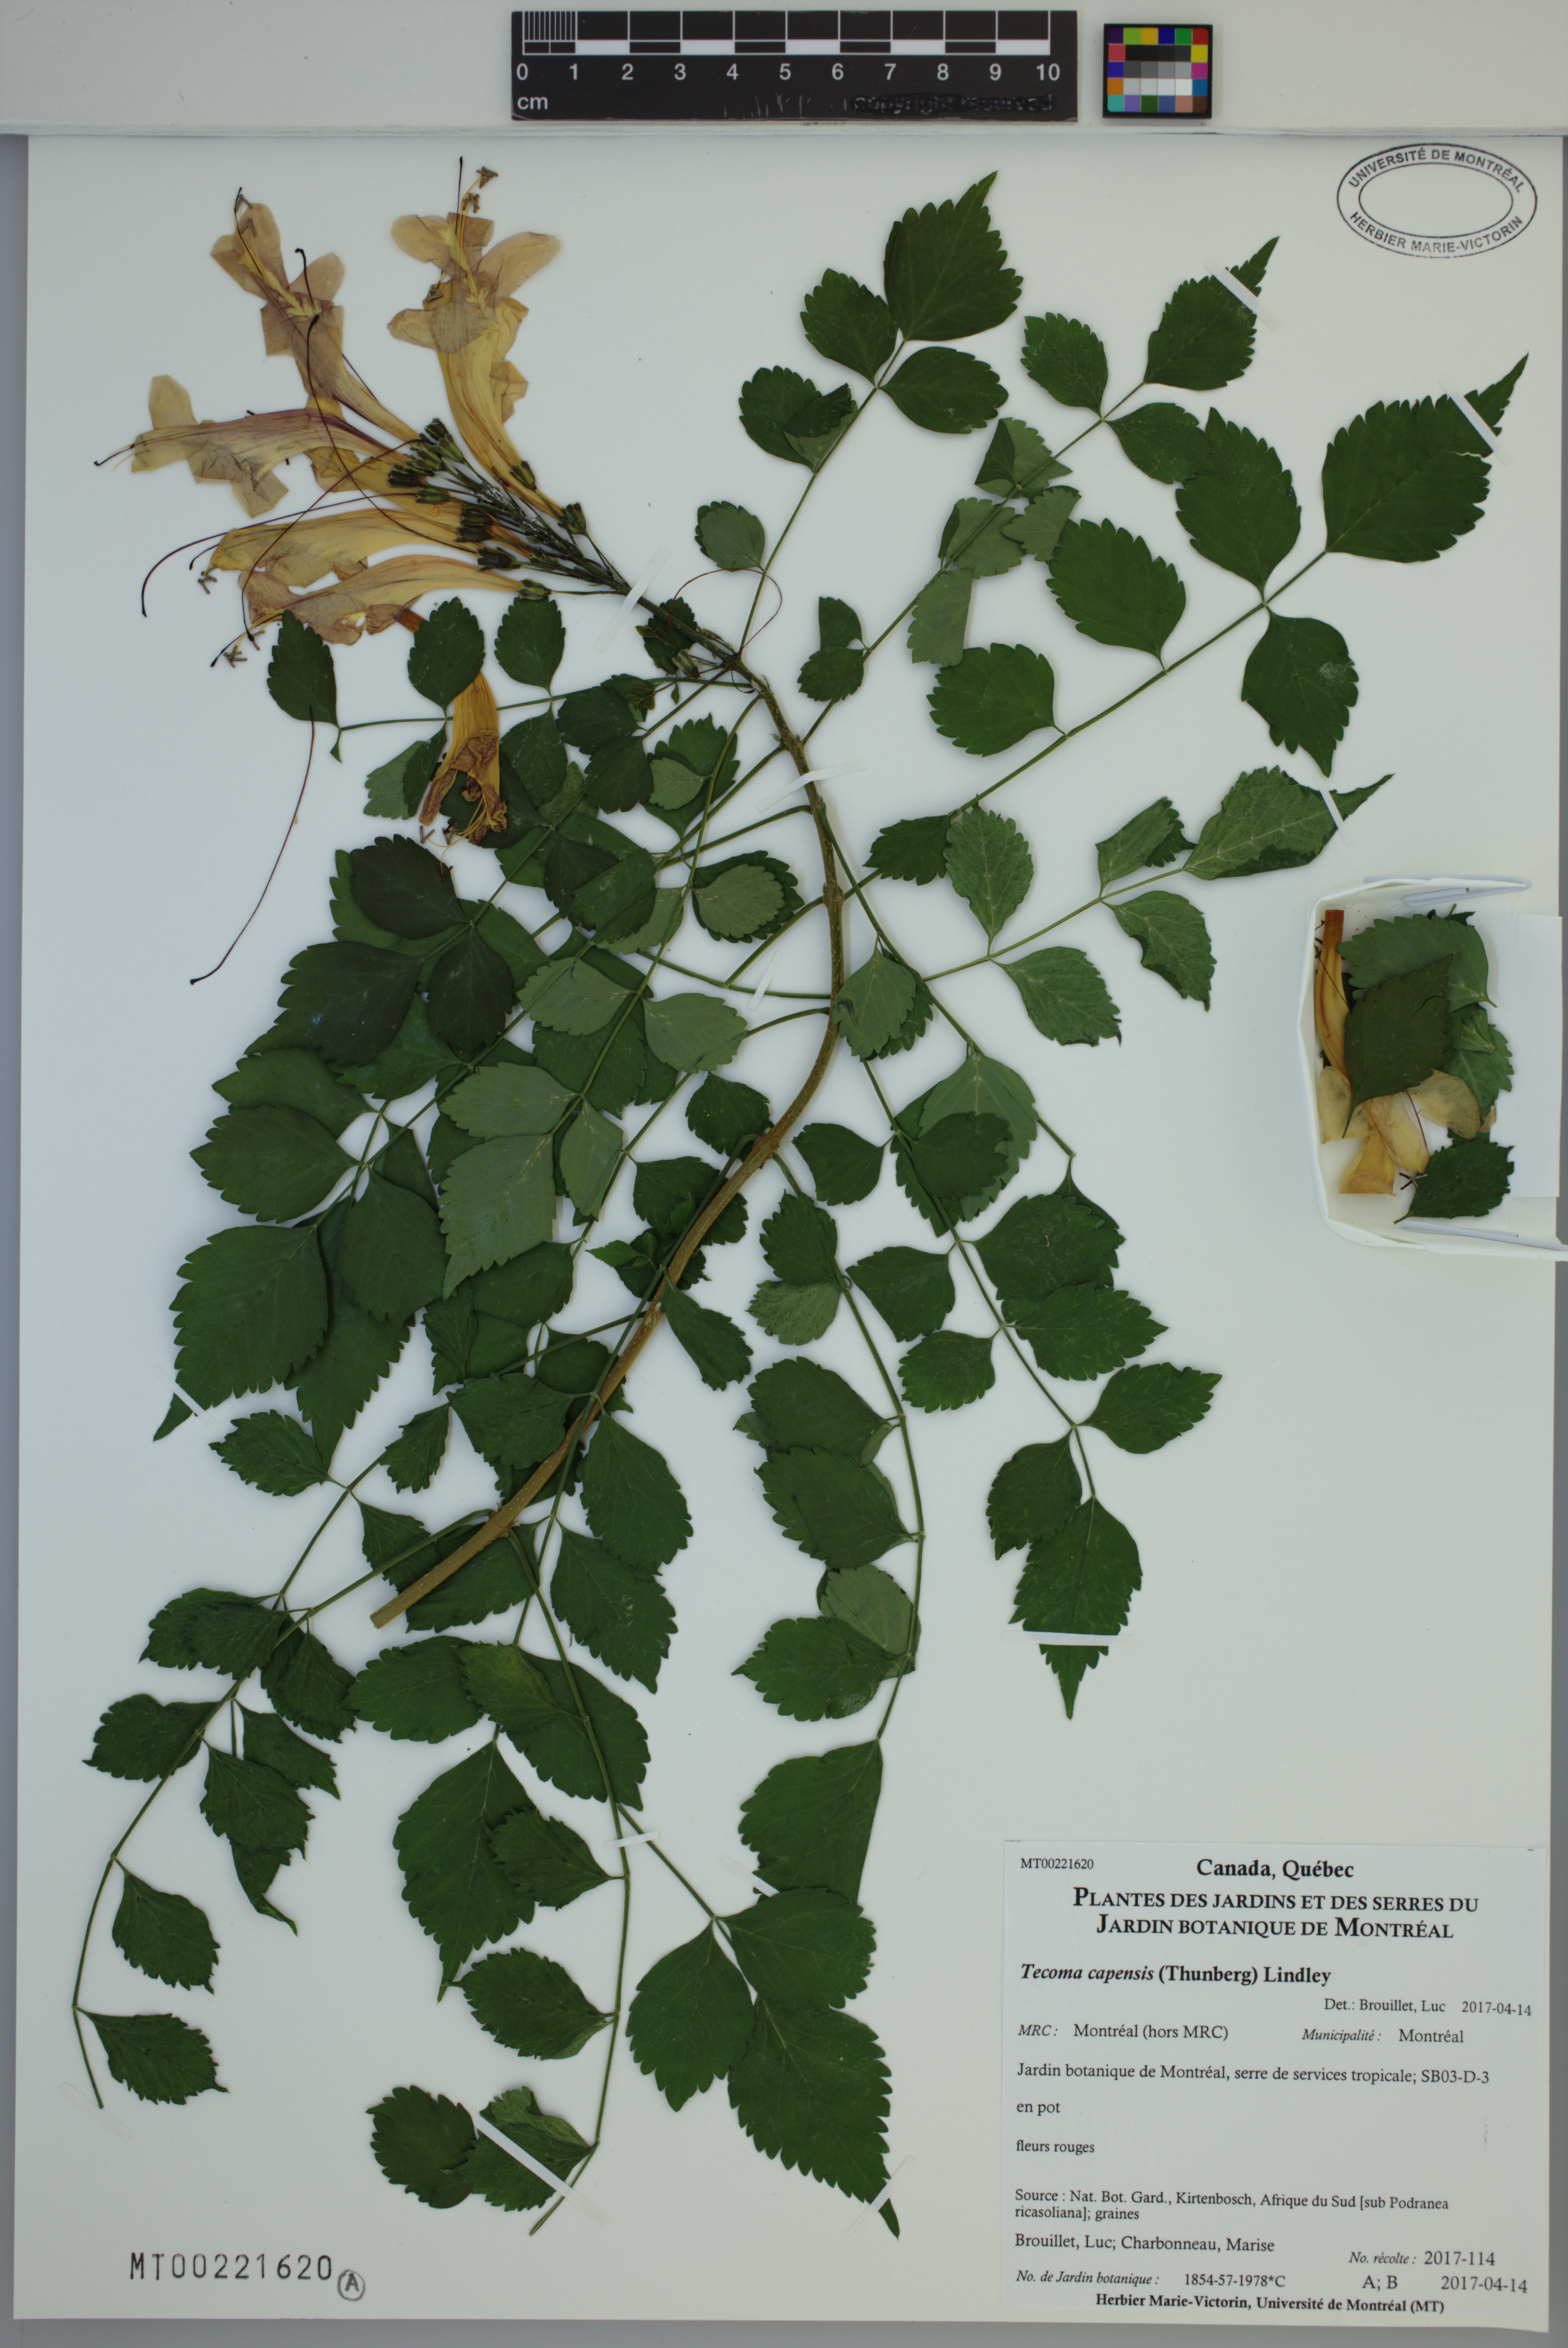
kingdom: Plantae
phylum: Tracheophyta
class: Magnoliopsida
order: Lamiales
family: Bignoniaceae
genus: Tecomaria
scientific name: Tecomaria capensis
